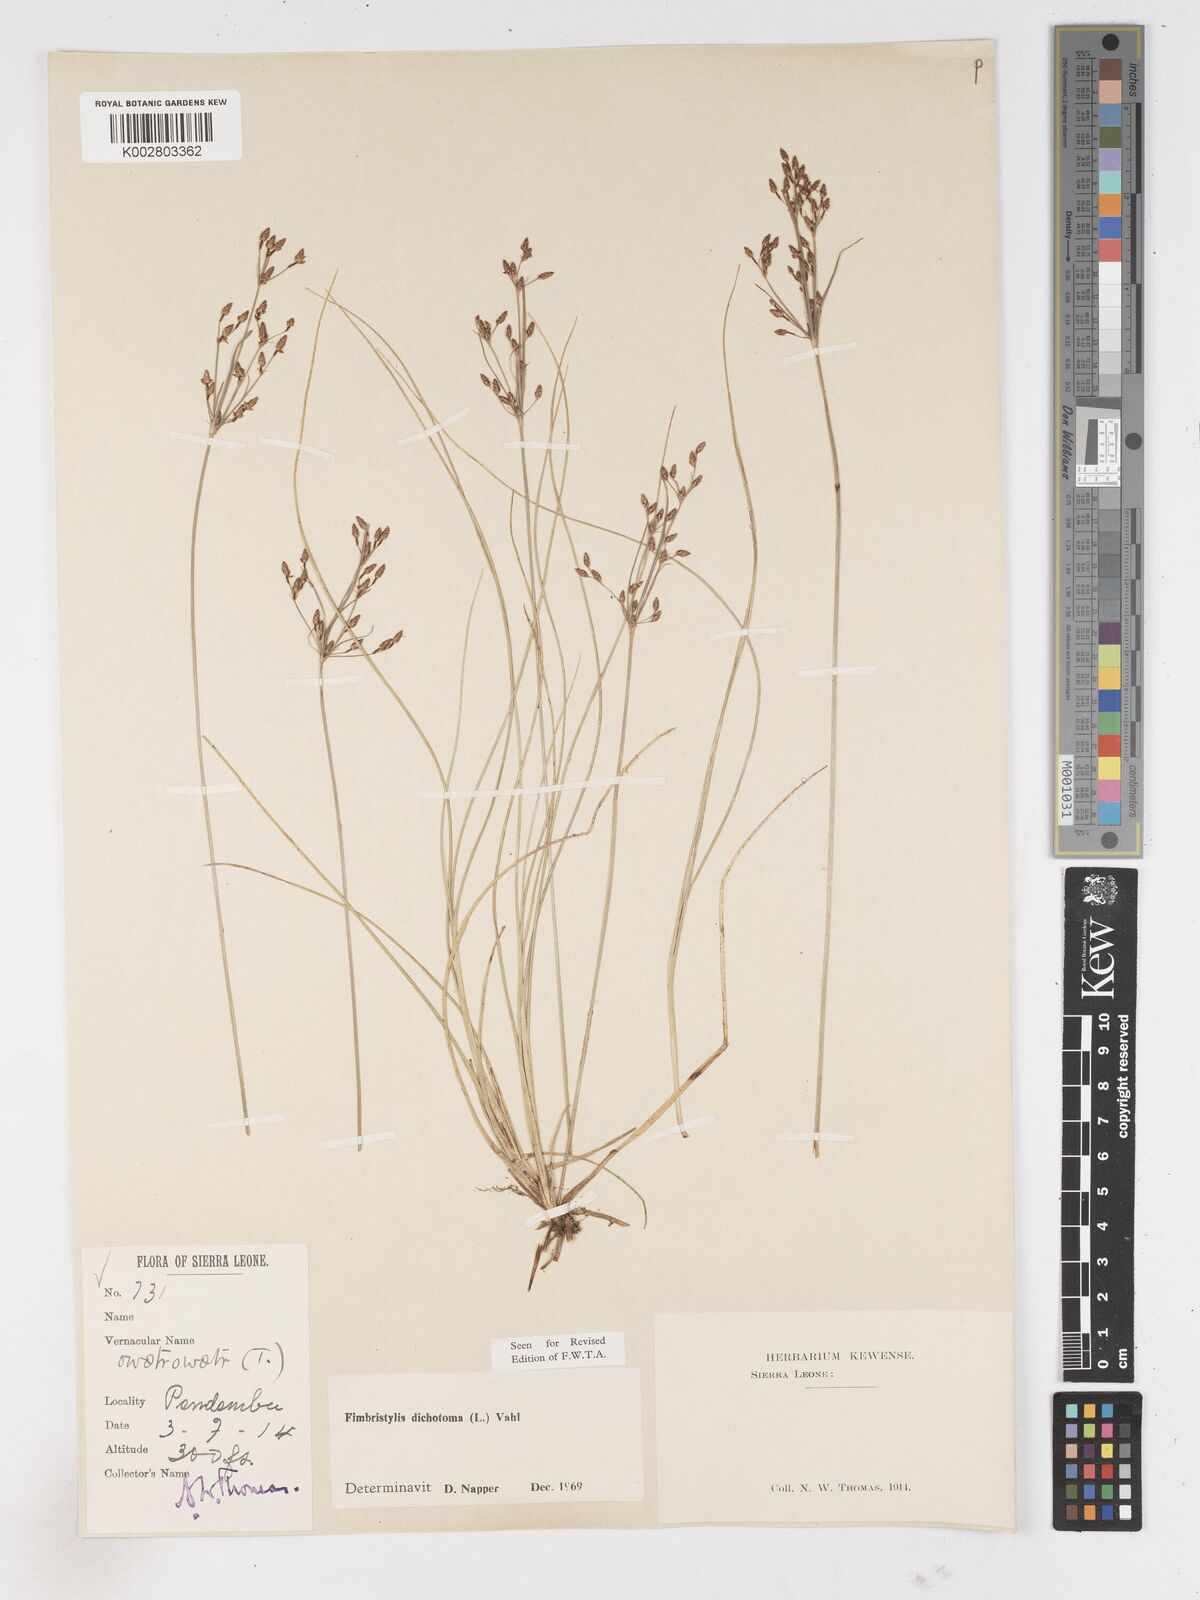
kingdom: Plantae
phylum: Tracheophyta
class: Liliopsida
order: Poales
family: Cyperaceae
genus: Fimbristylis
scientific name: Fimbristylis dichotoma
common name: Forked fimbry
